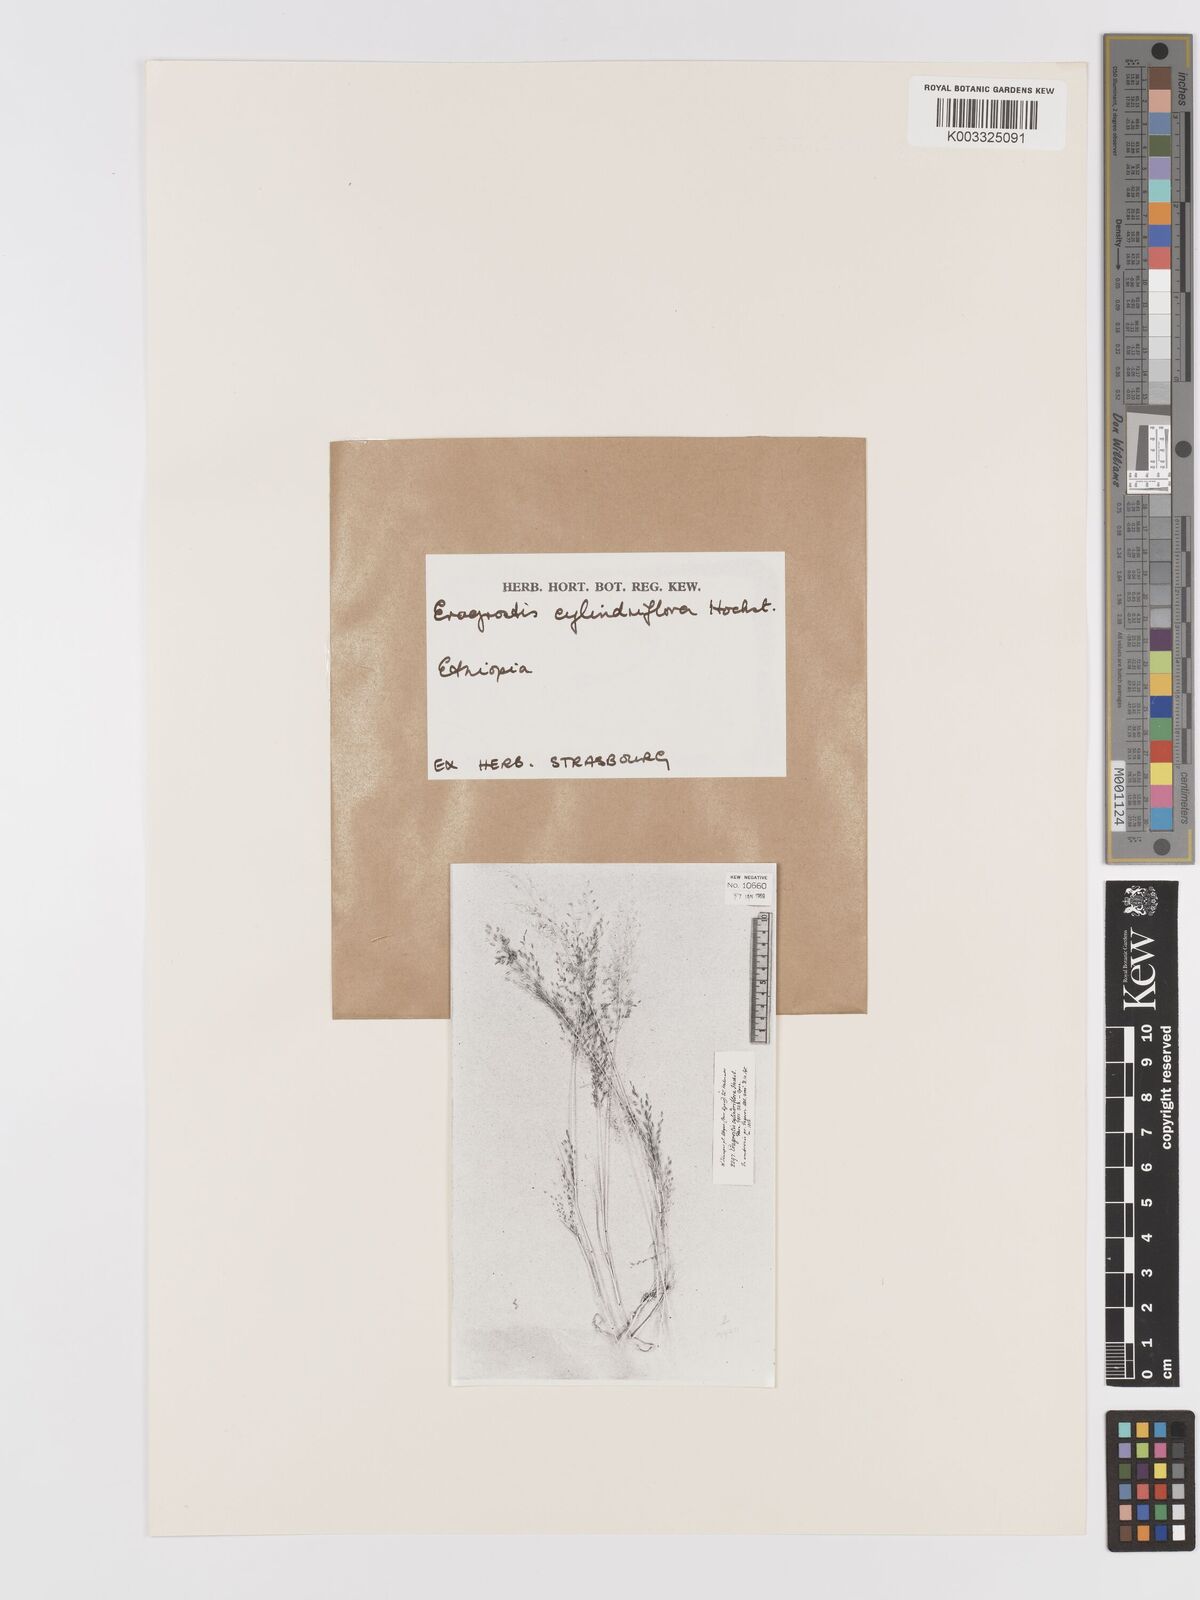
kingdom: Plantae
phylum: Tracheophyta
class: Liliopsida
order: Poales
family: Poaceae
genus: Eragrostis
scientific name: Eragrostis porosa
